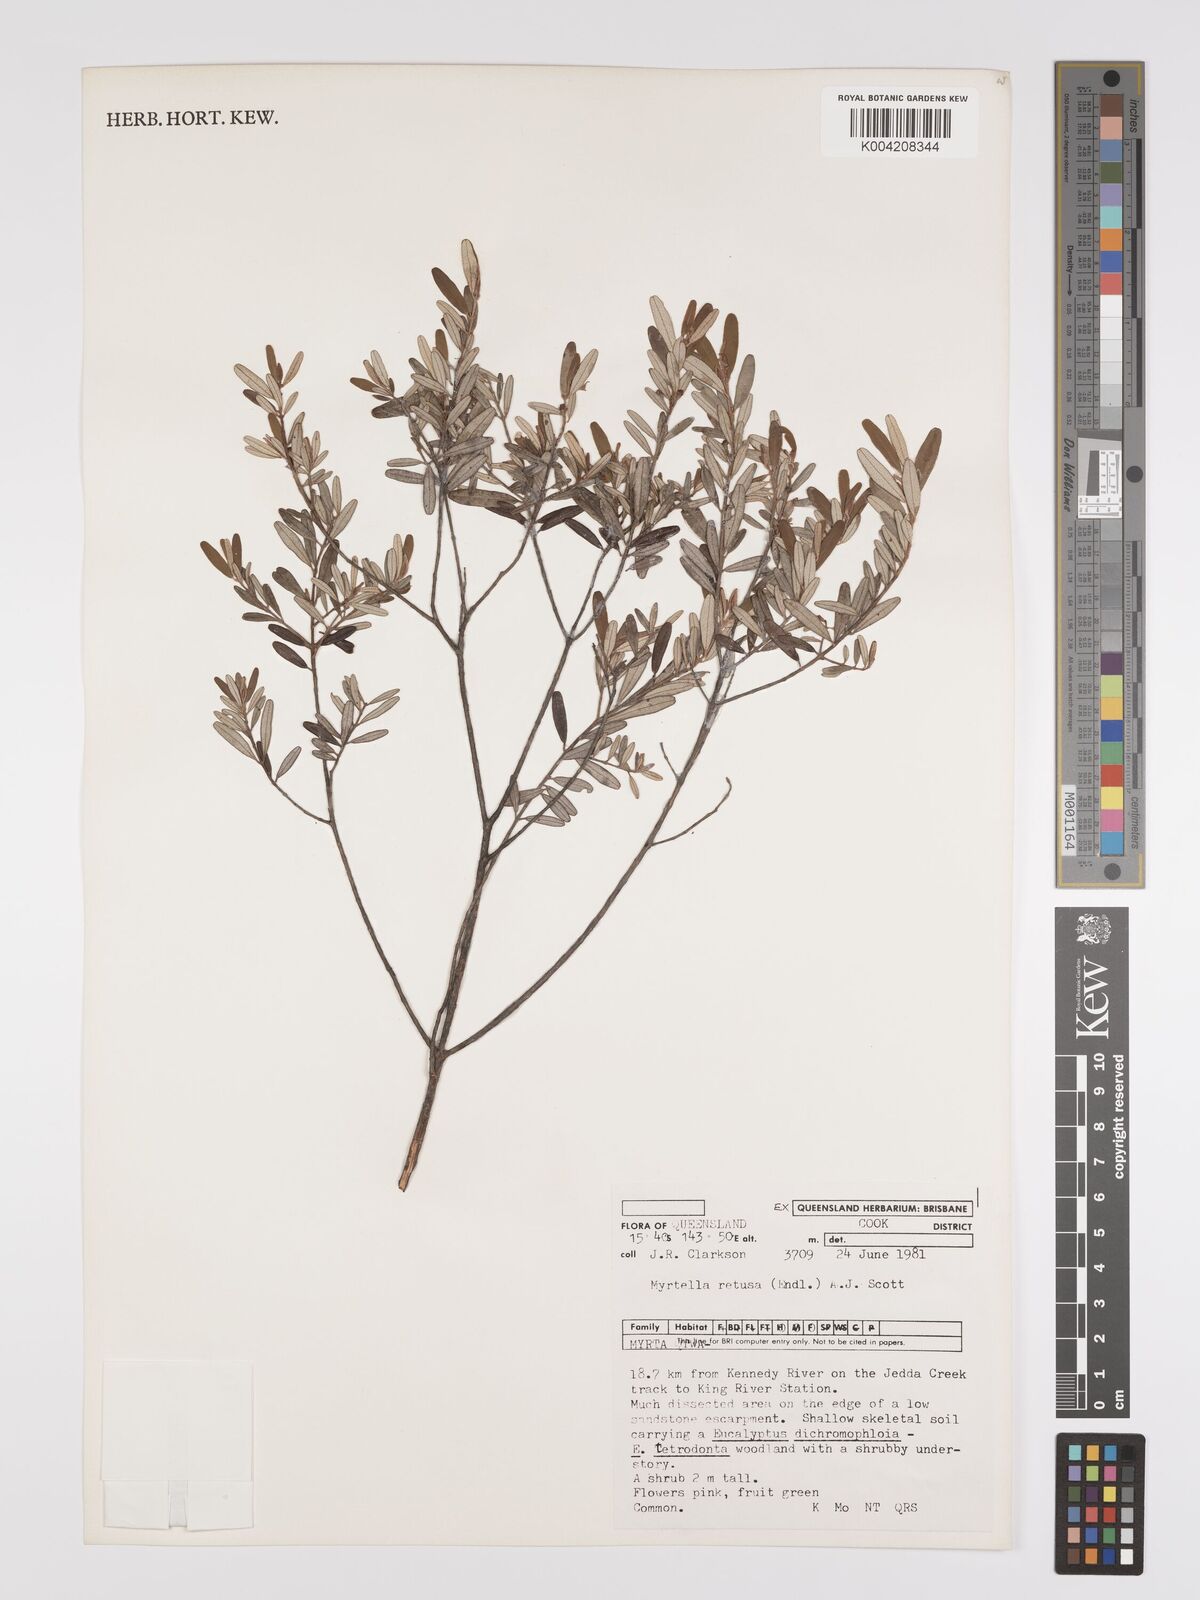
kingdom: Plantae
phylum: Tracheophyta
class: Magnoliopsida
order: Myrtales
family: Myrtaceae
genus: Lithomyrtus
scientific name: Lithomyrtus retusa
